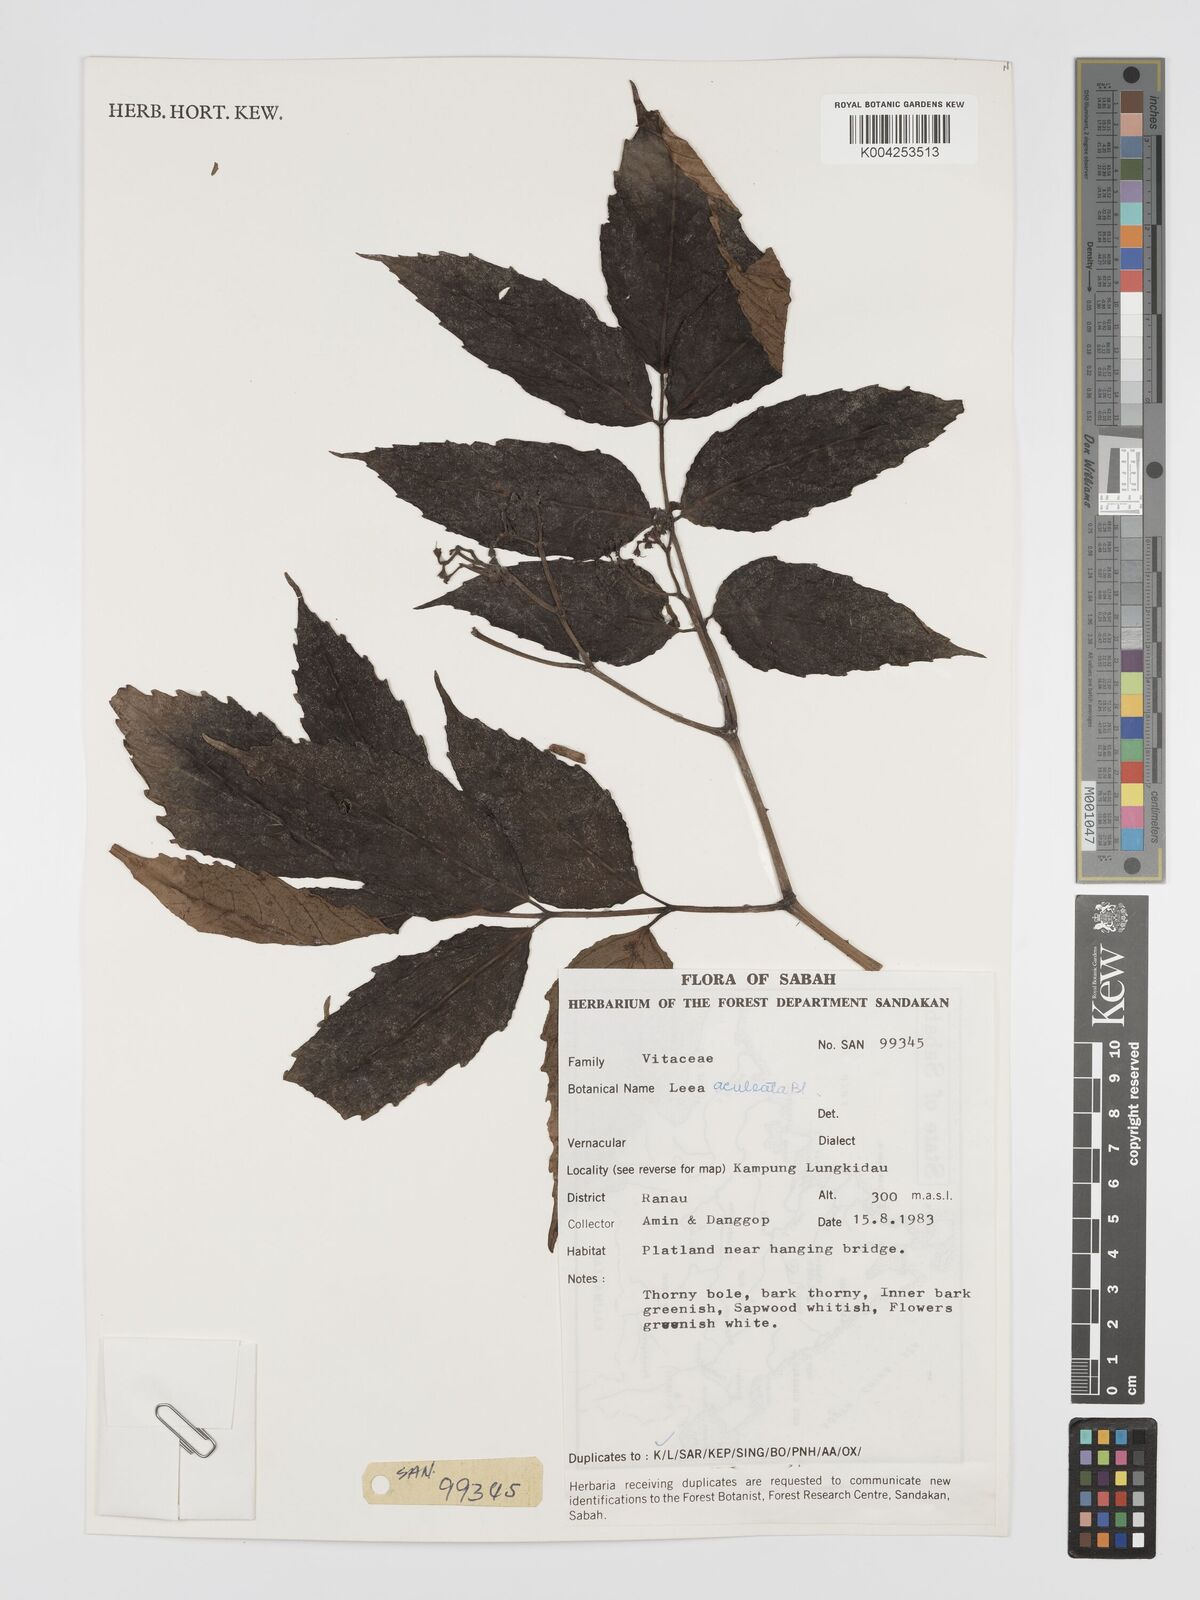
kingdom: Plantae
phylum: Tracheophyta
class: Magnoliopsida
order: Vitales
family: Vitaceae
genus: Leea
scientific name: Leea aculeata
